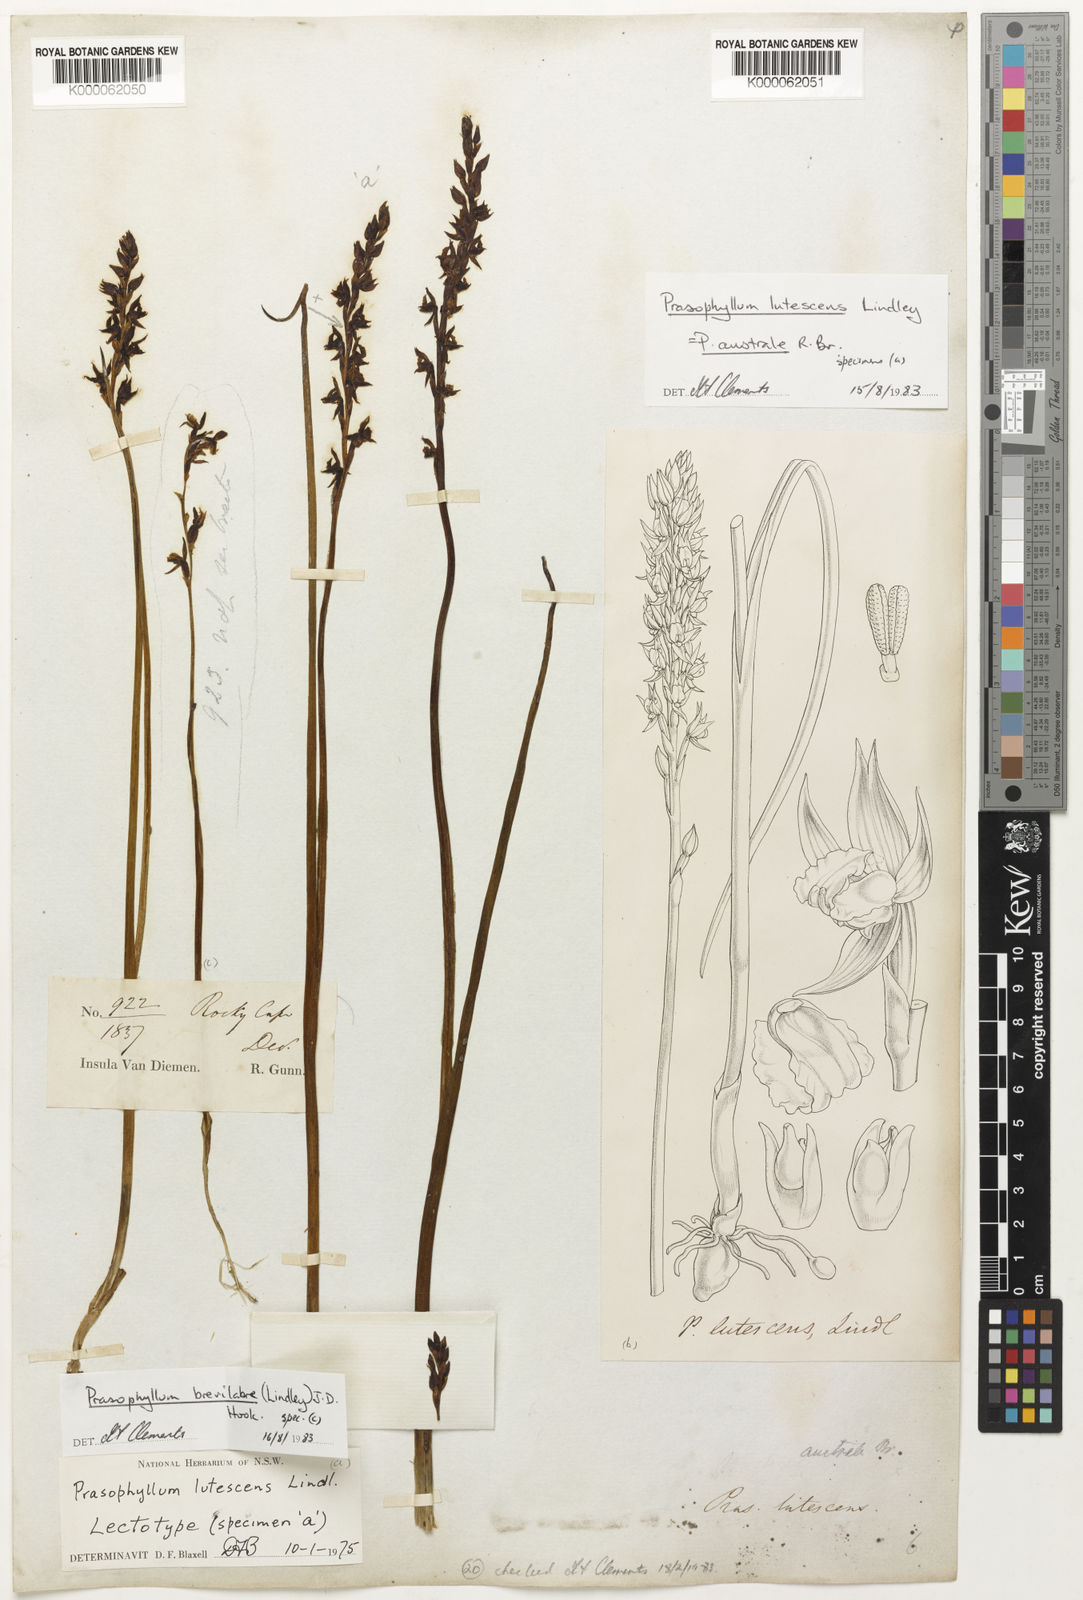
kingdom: Plantae
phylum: Tracheophyta
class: Liliopsida
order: Asparagales
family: Orchidaceae
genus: Prasophyllum
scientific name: Prasophyllum australe
